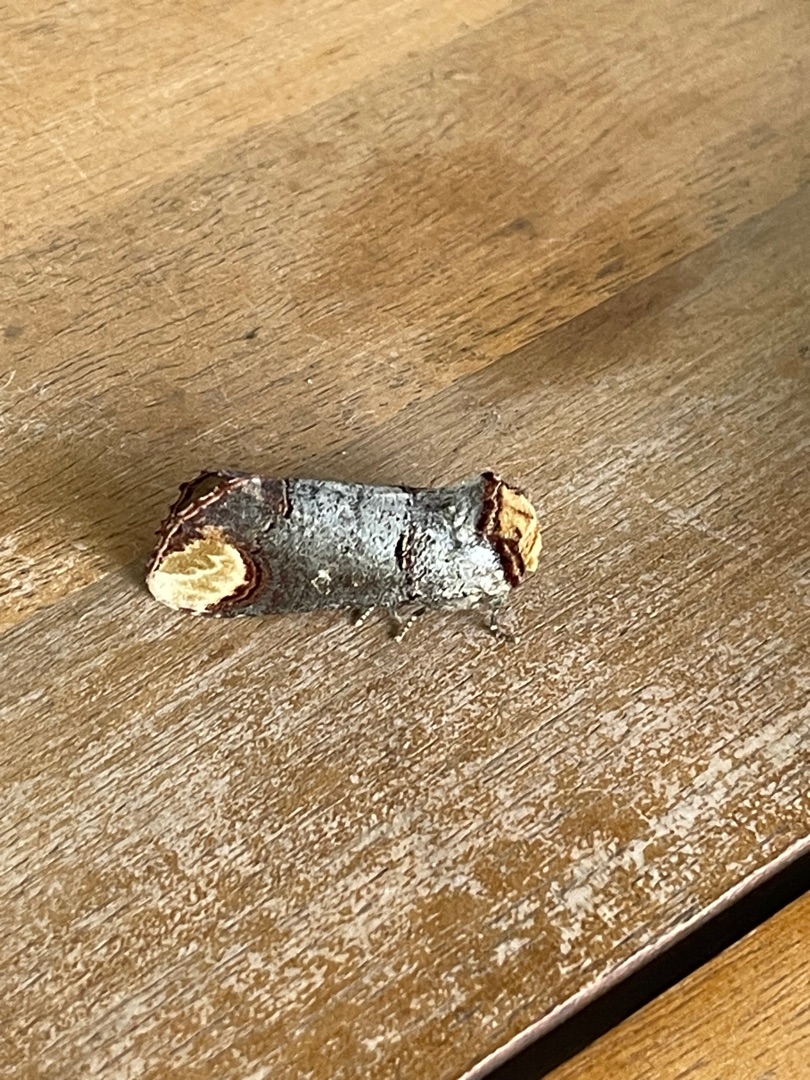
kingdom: Animalia
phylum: Arthropoda
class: Insecta
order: Lepidoptera
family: Notodontidae
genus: Phalera
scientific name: Phalera bucephala
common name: Måneplet
